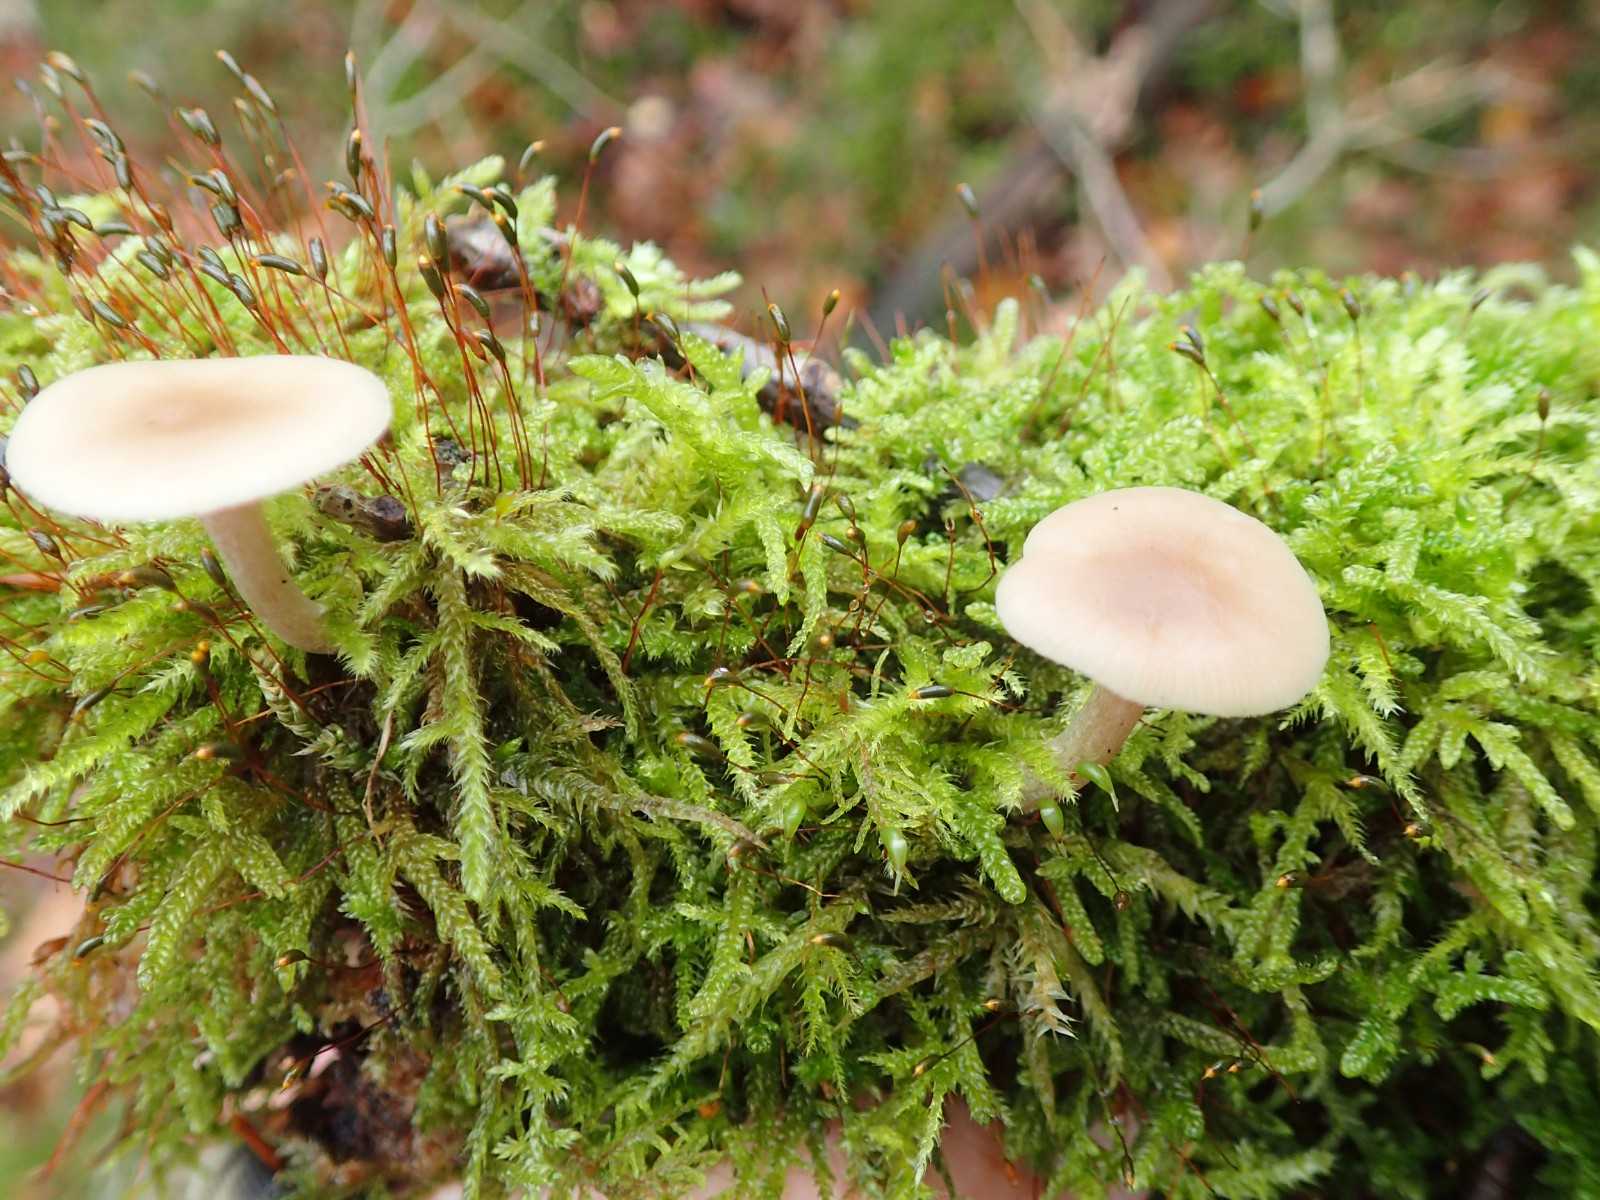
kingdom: Fungi
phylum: Basidiomycota
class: Agaricomycetes
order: Agaricales
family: Tricholomataceae
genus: Clitocybe
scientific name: Clitocybe fragrans
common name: vellugtende tragthat
